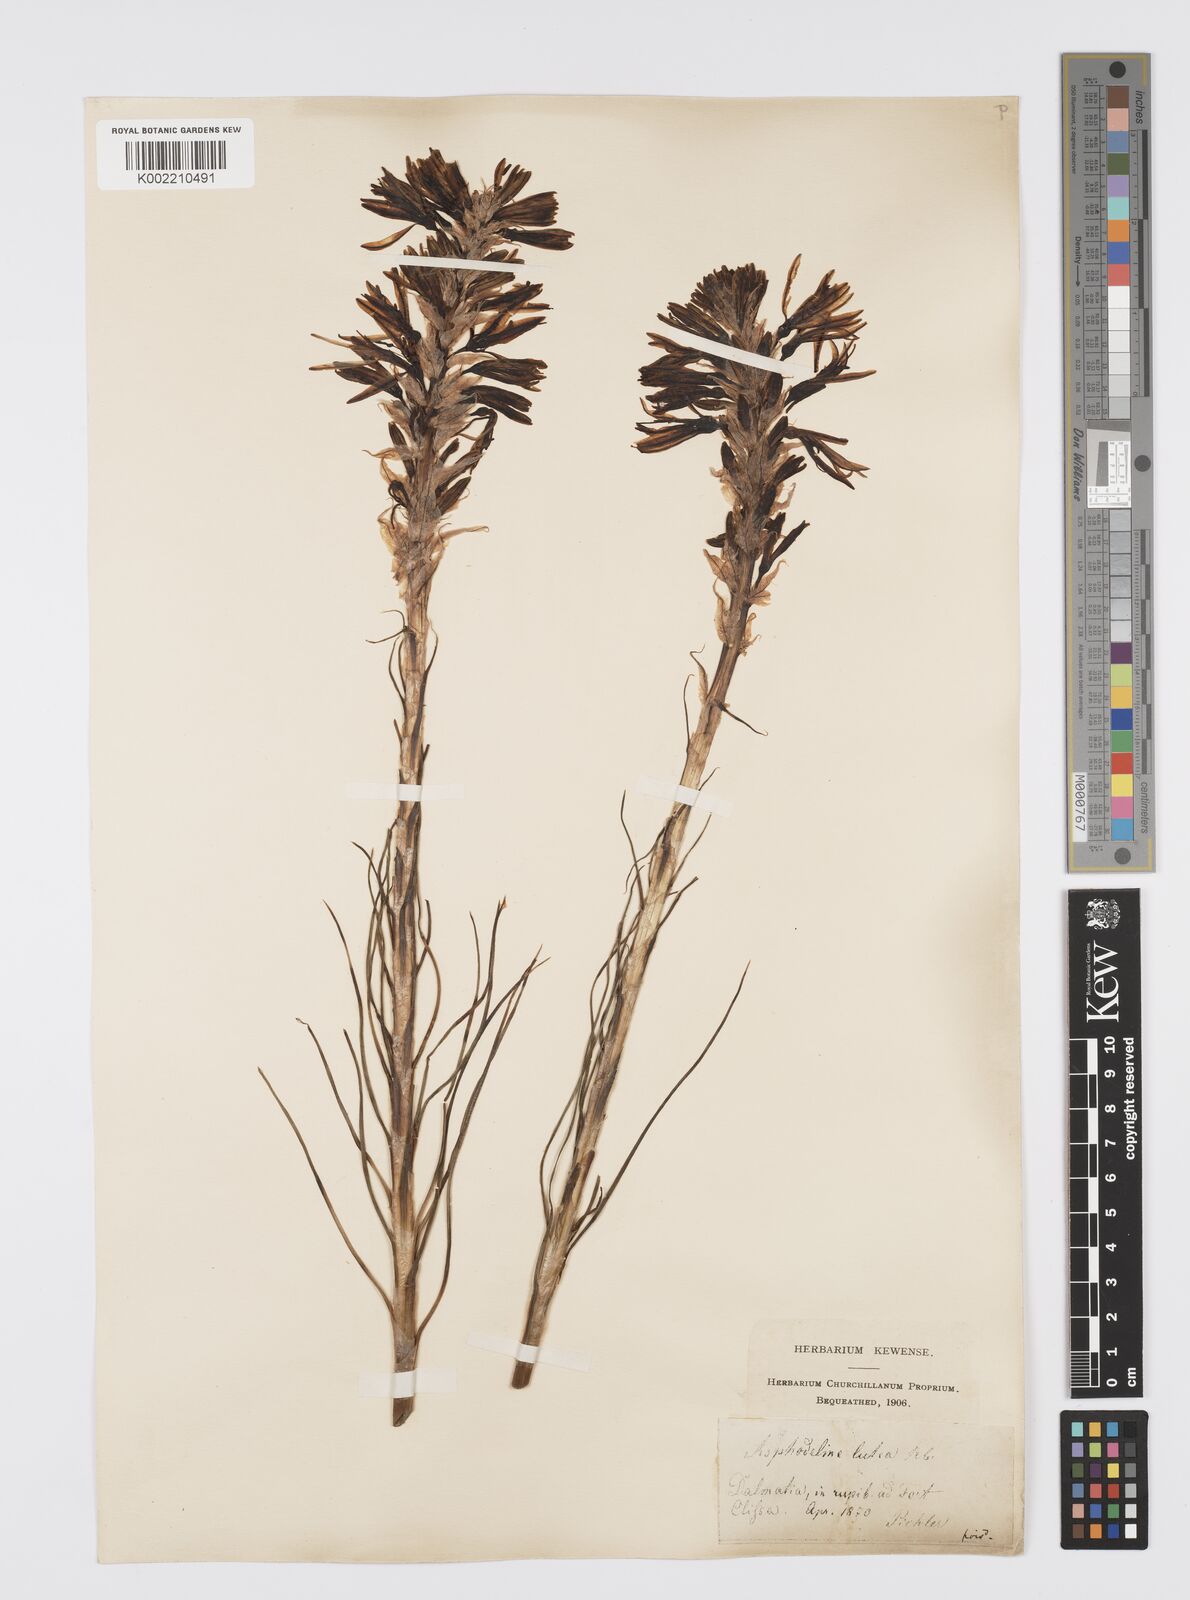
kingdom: Plantae
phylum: Tracheophyta
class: Liliopsida
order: Asparagales
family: Asphodelaceae
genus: Asphodeline
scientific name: Asphodeline lutea
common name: Yellow asphodel
